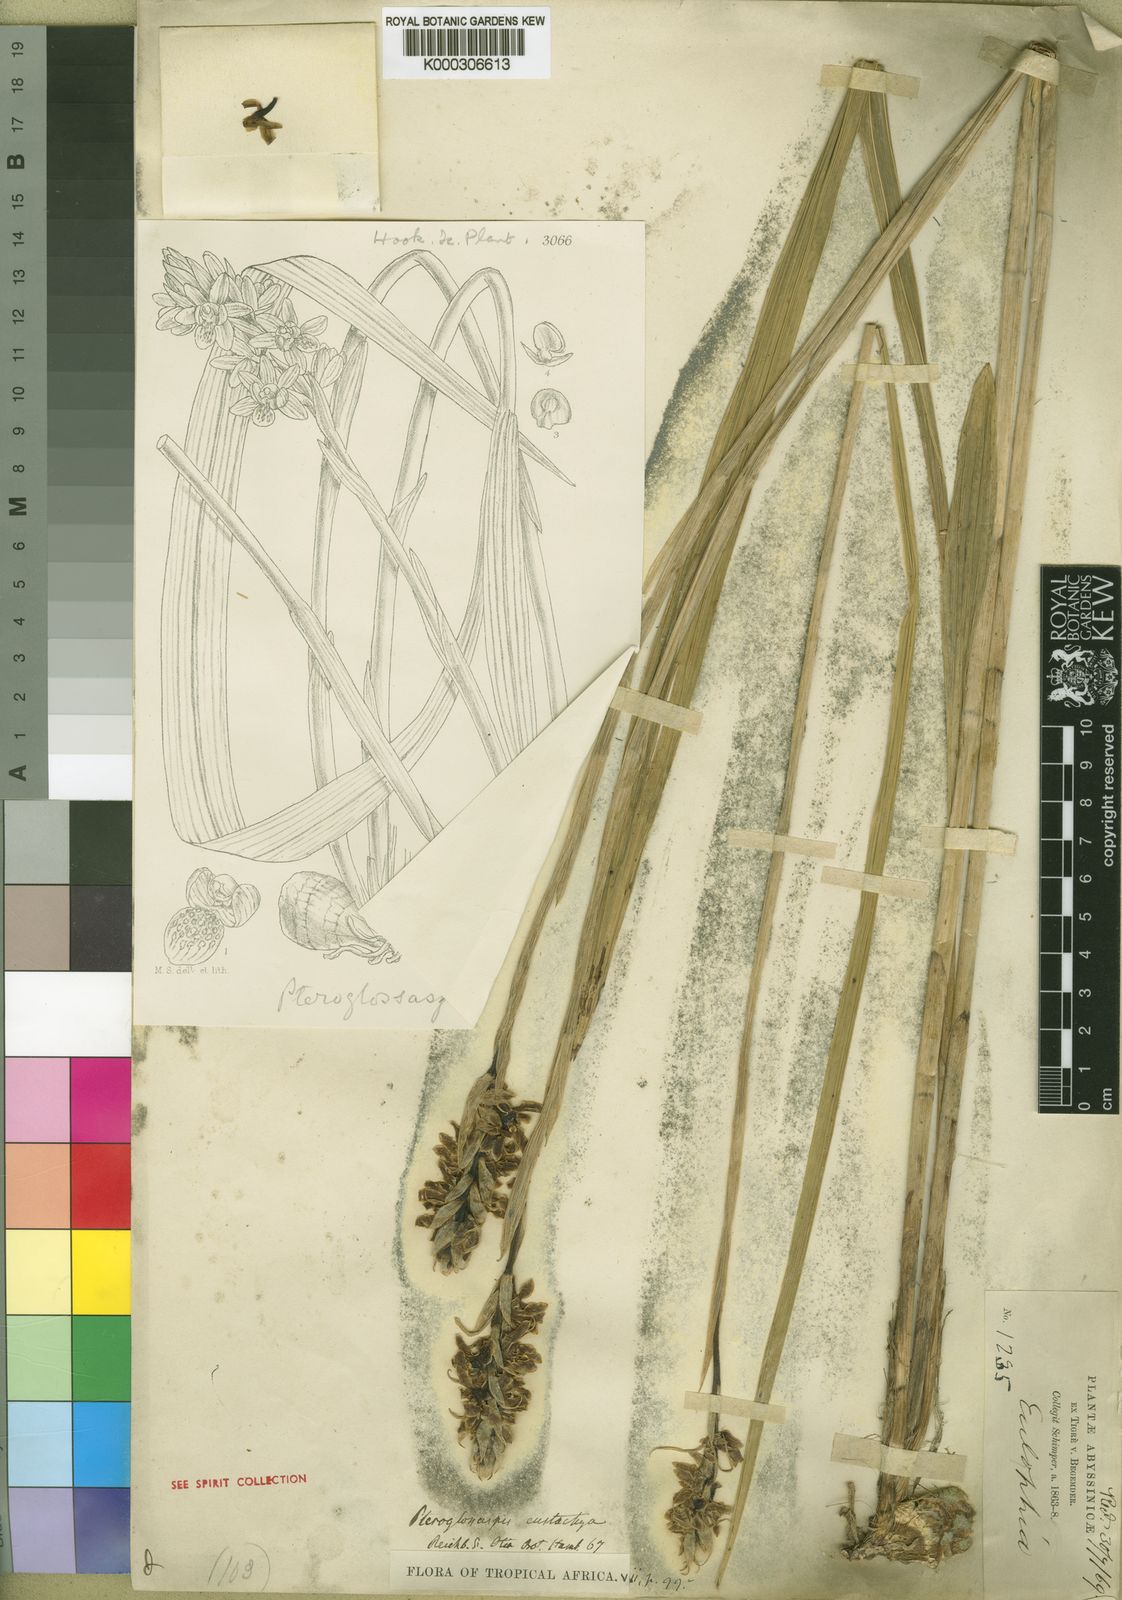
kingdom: Plantae
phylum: Tracheophyta
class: Liliopsida
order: Asparagales
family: Orchidaceae
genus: Eulophia
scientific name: Eulophia eustachya
